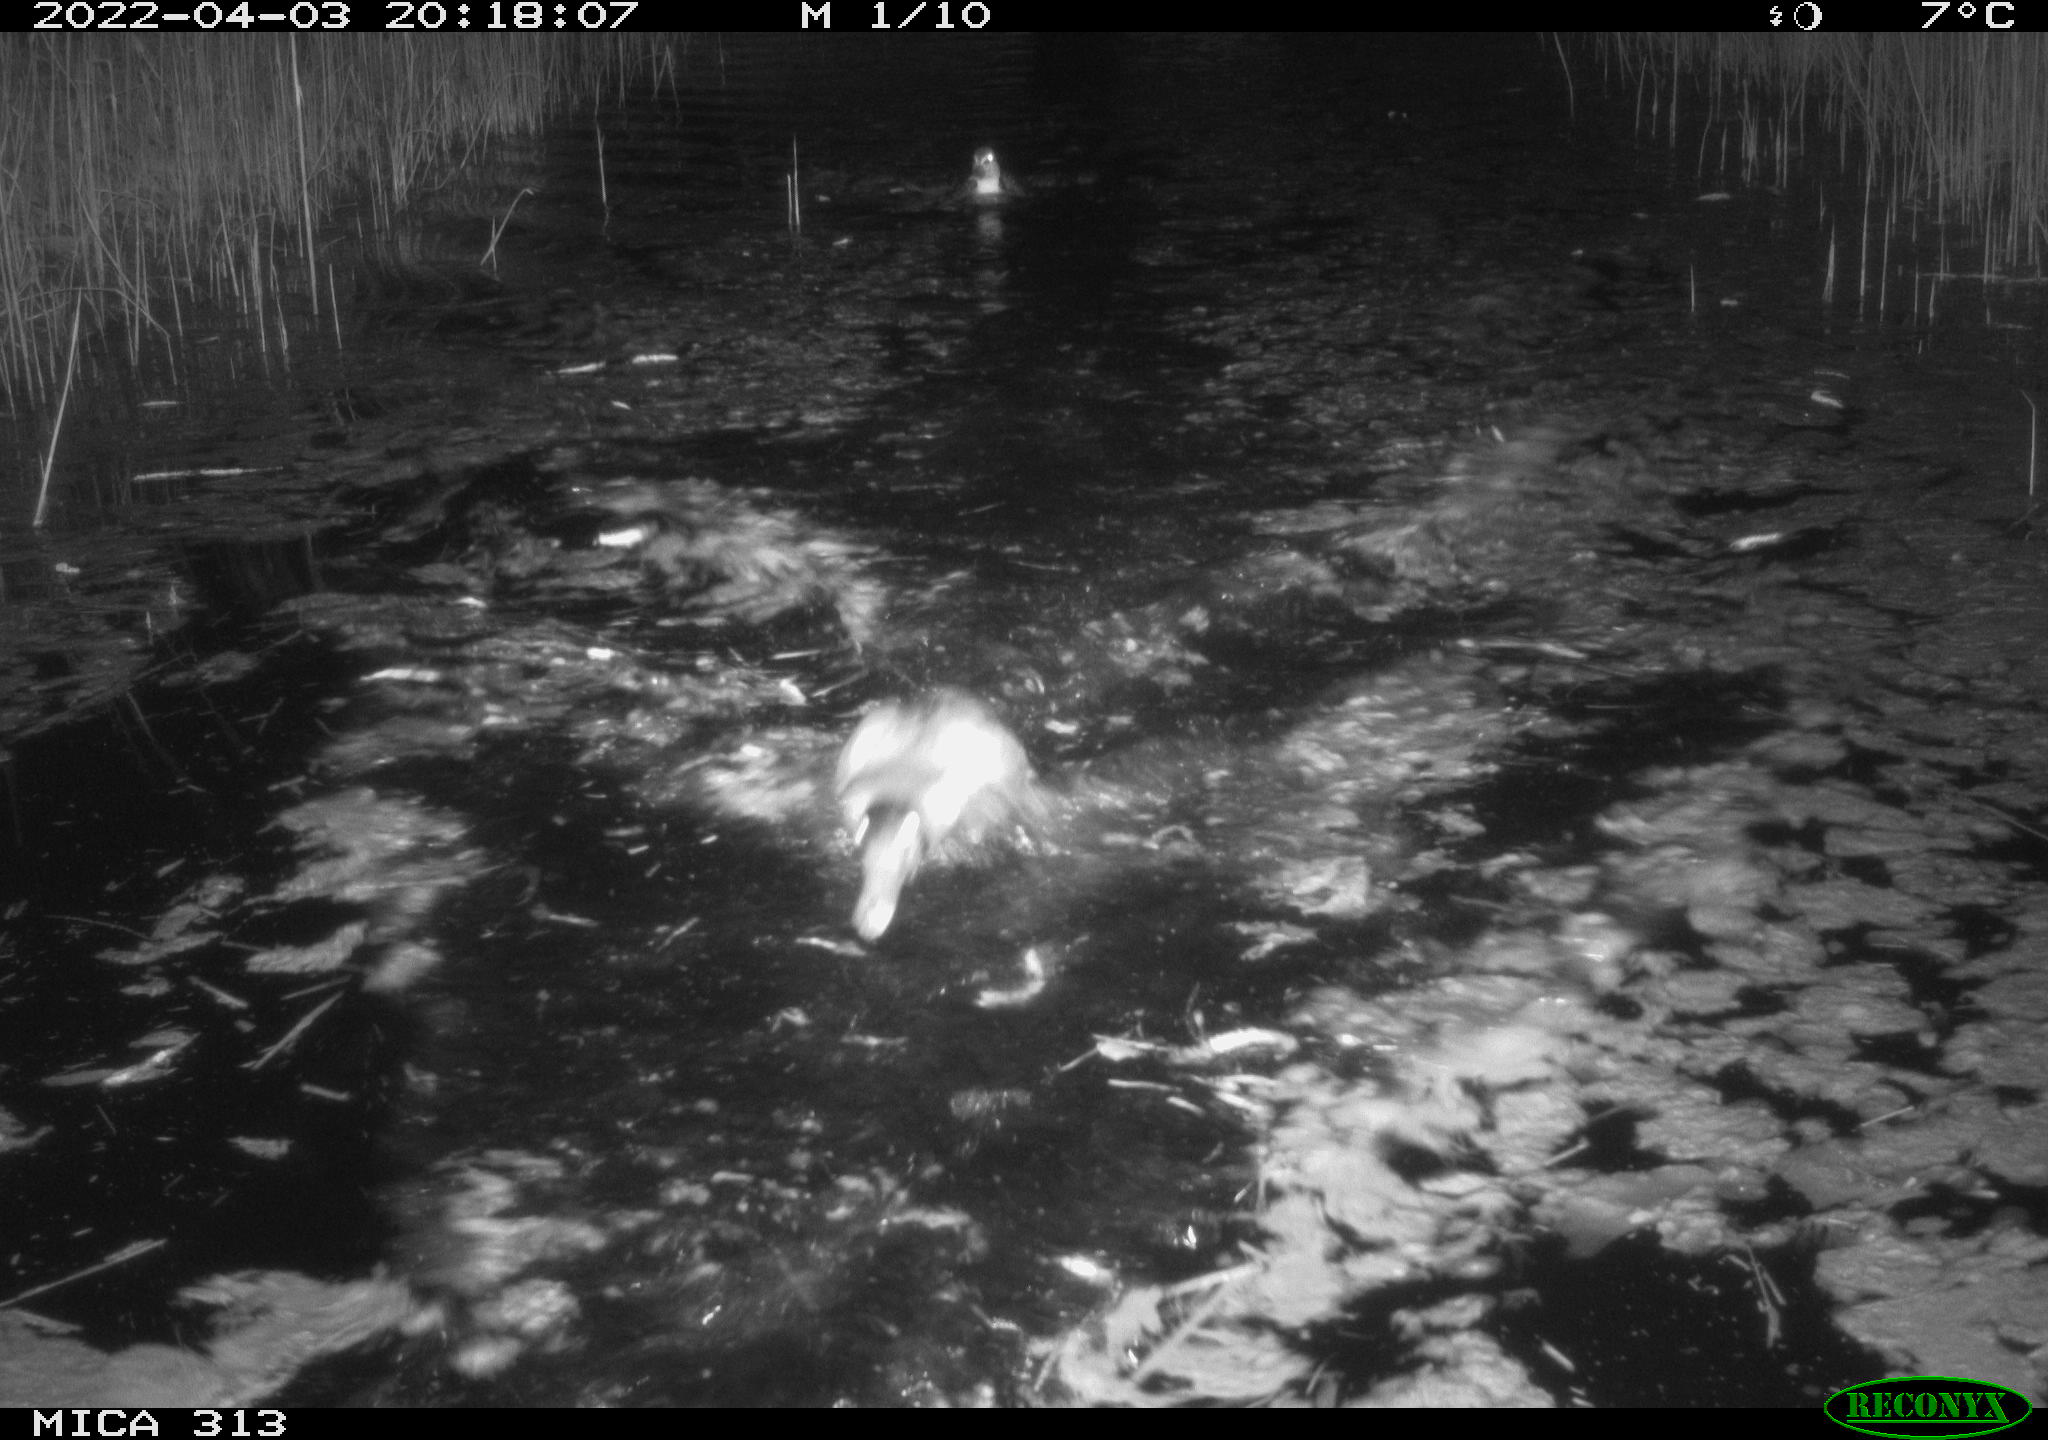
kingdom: Animalia
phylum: Chordata
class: Aves
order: Anseriformes
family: Anatidae
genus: Anas
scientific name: Anas platyrhynchos
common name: Mallard
